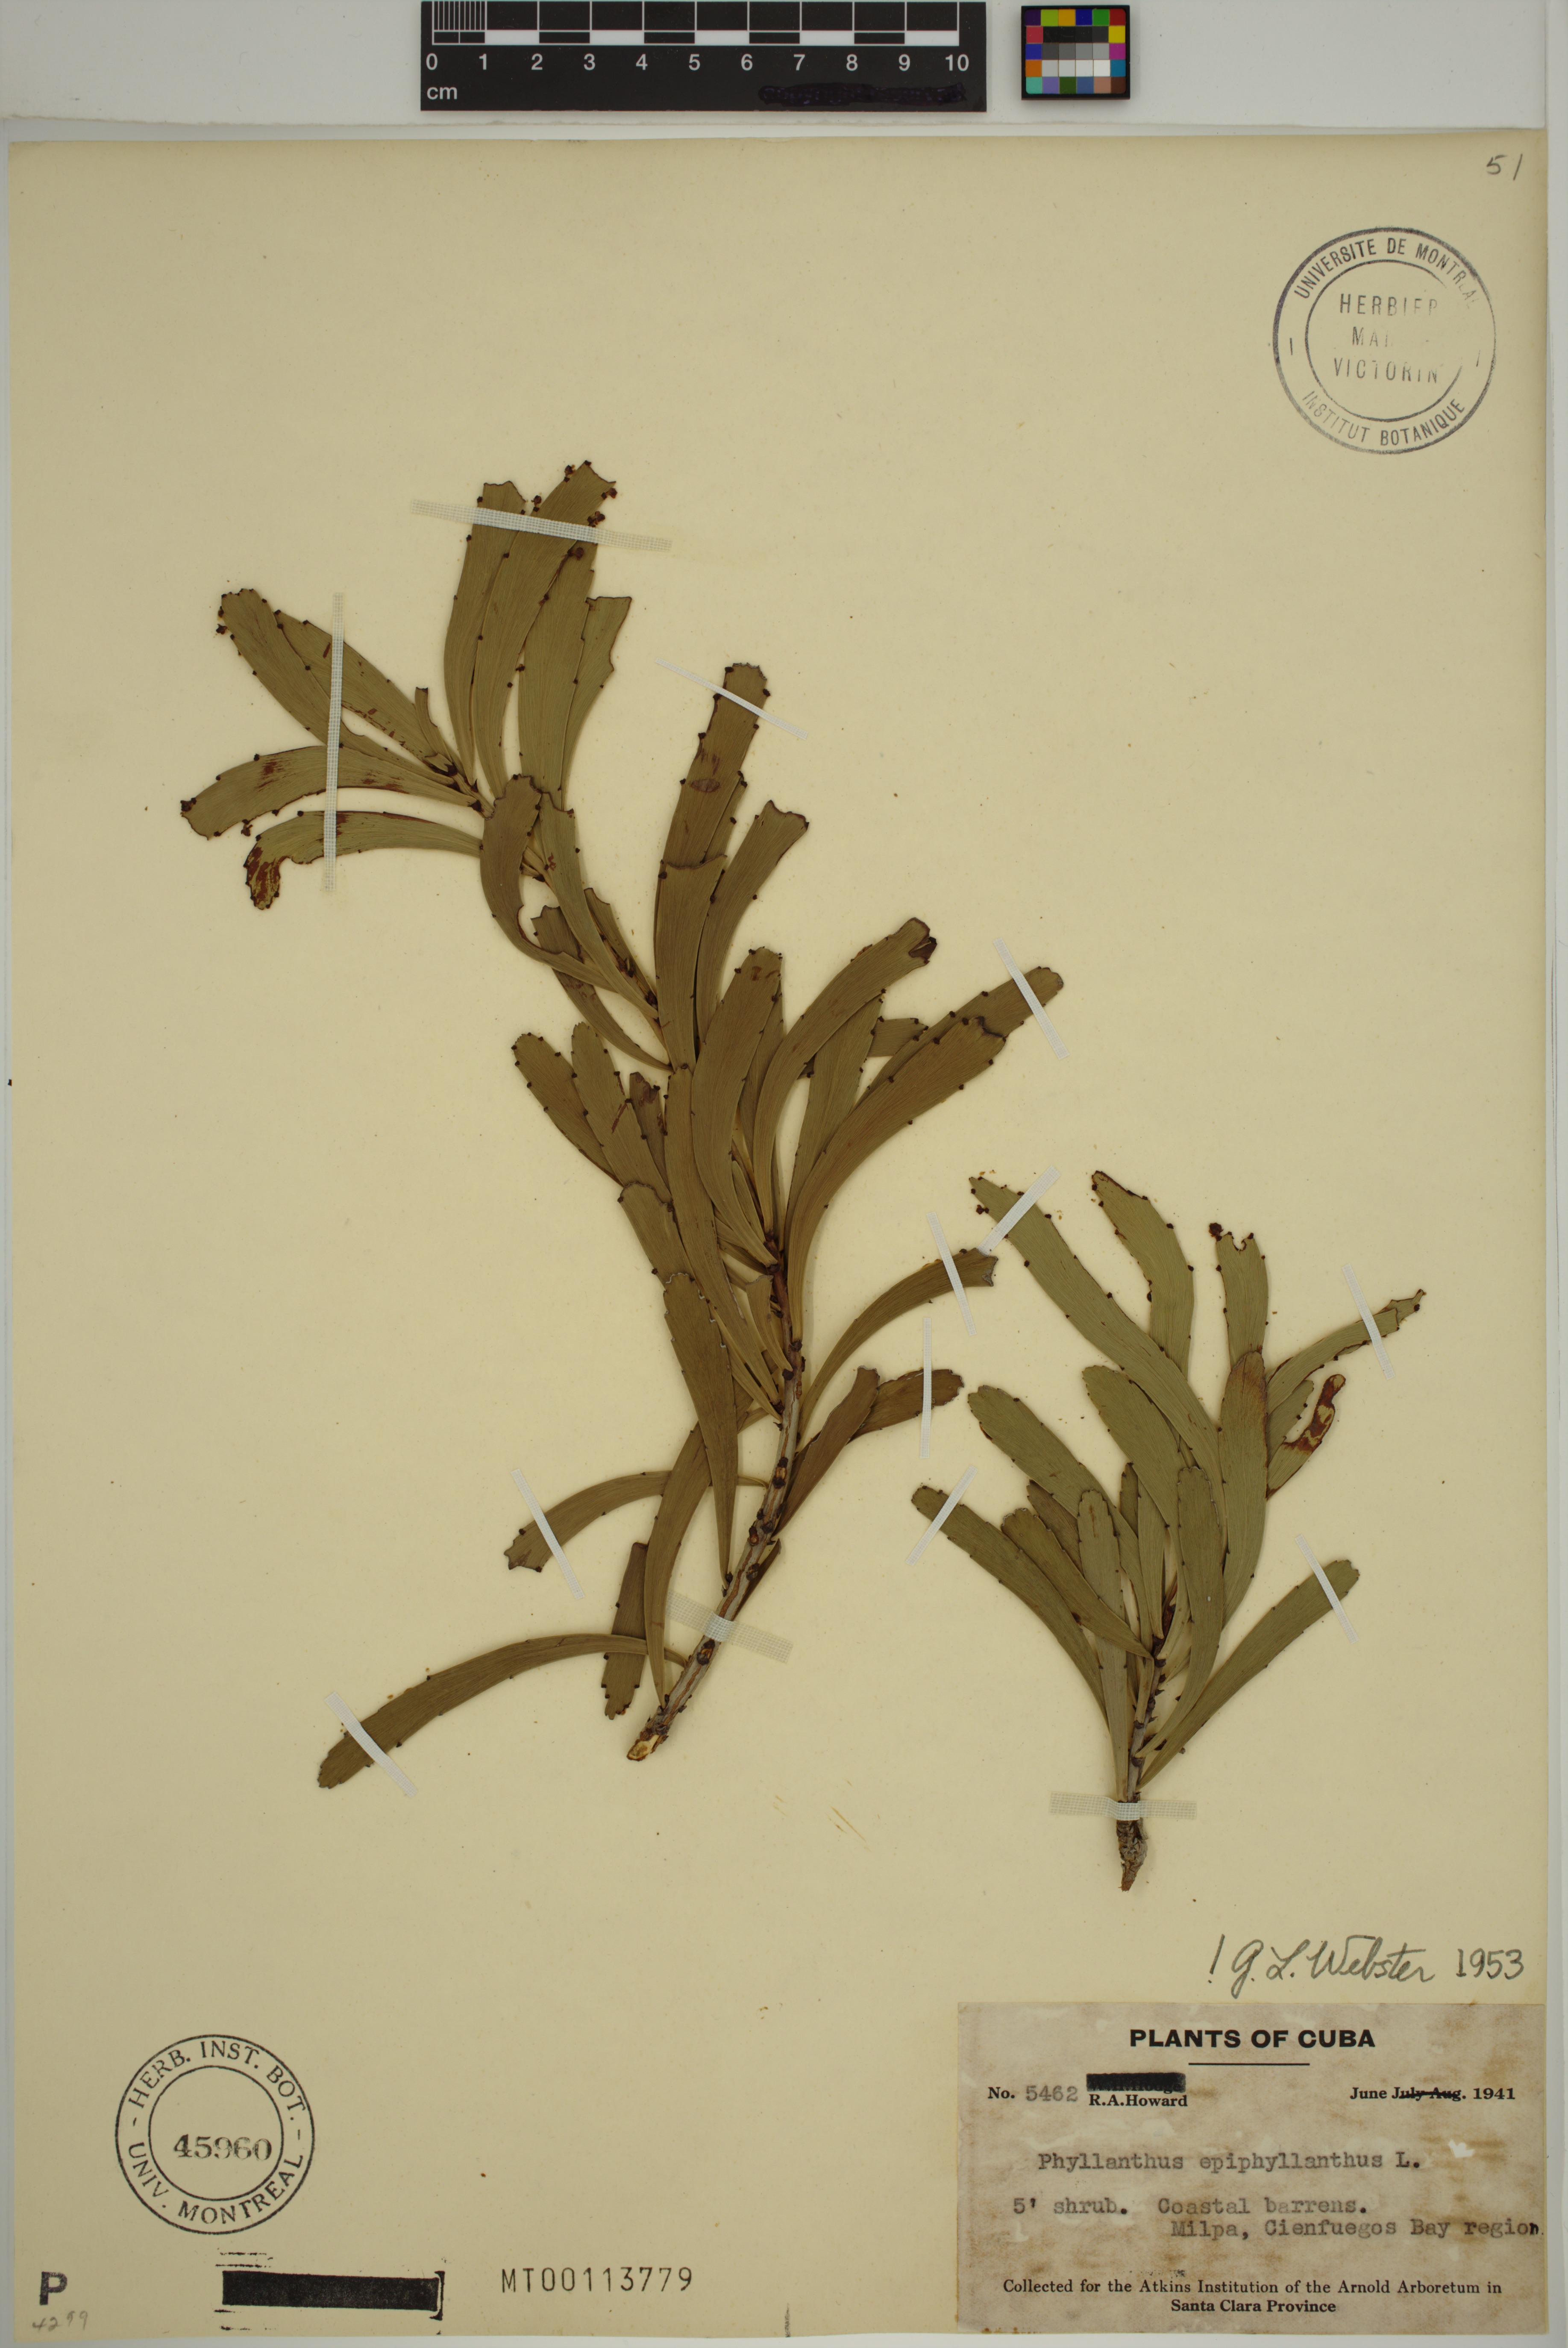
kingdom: Plantae
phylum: Tracheophyta
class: Magnoliopsida
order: Malpighiales
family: Phyllanthaceae
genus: Phyllanthus
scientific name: Phyllanthus epiphyllanthus
